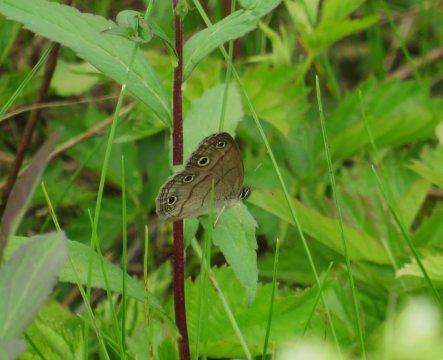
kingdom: Animalia
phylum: Arthropoda
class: Insecta
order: Lepidoptera
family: Nymphalidae
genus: Euptychia
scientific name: Euptychia cymela
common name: Little Wood Satyr
